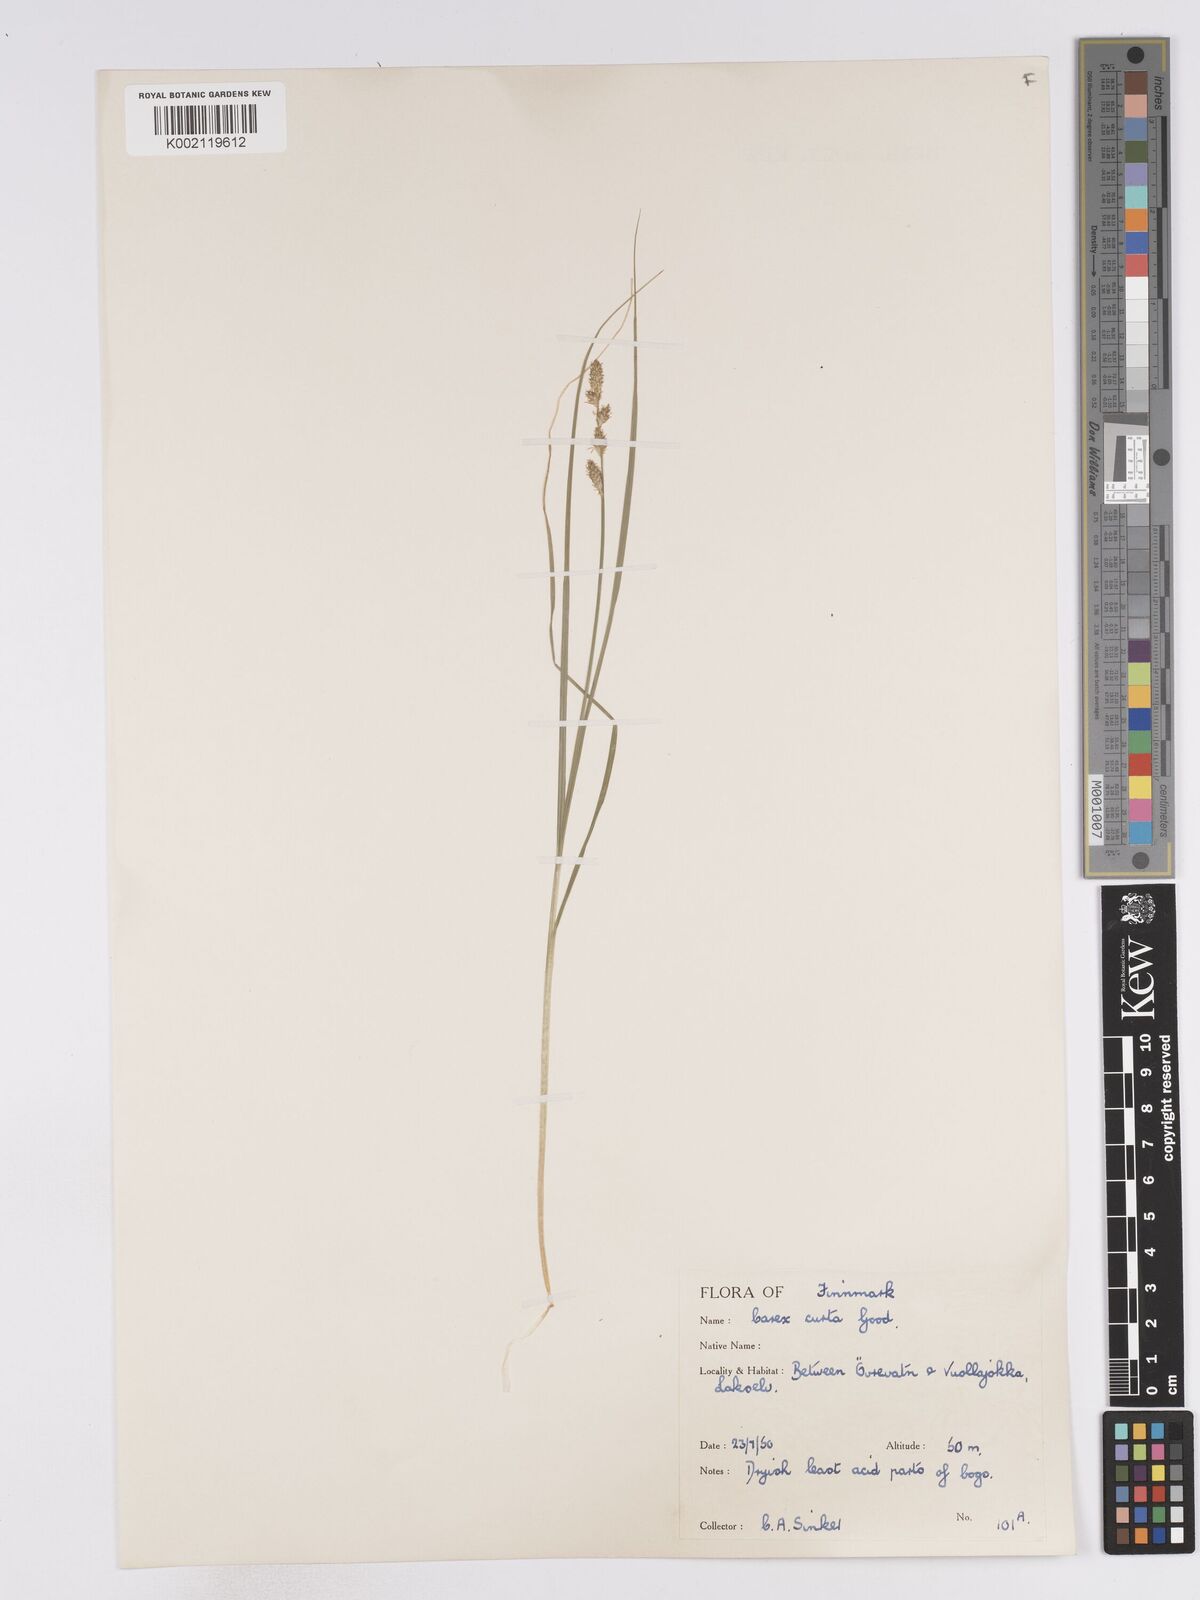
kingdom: Plantae
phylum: Tracheophyta
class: Liliopsida
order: Poales
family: Cyperaceae
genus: Carex
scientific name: Carex curta
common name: White sedge
